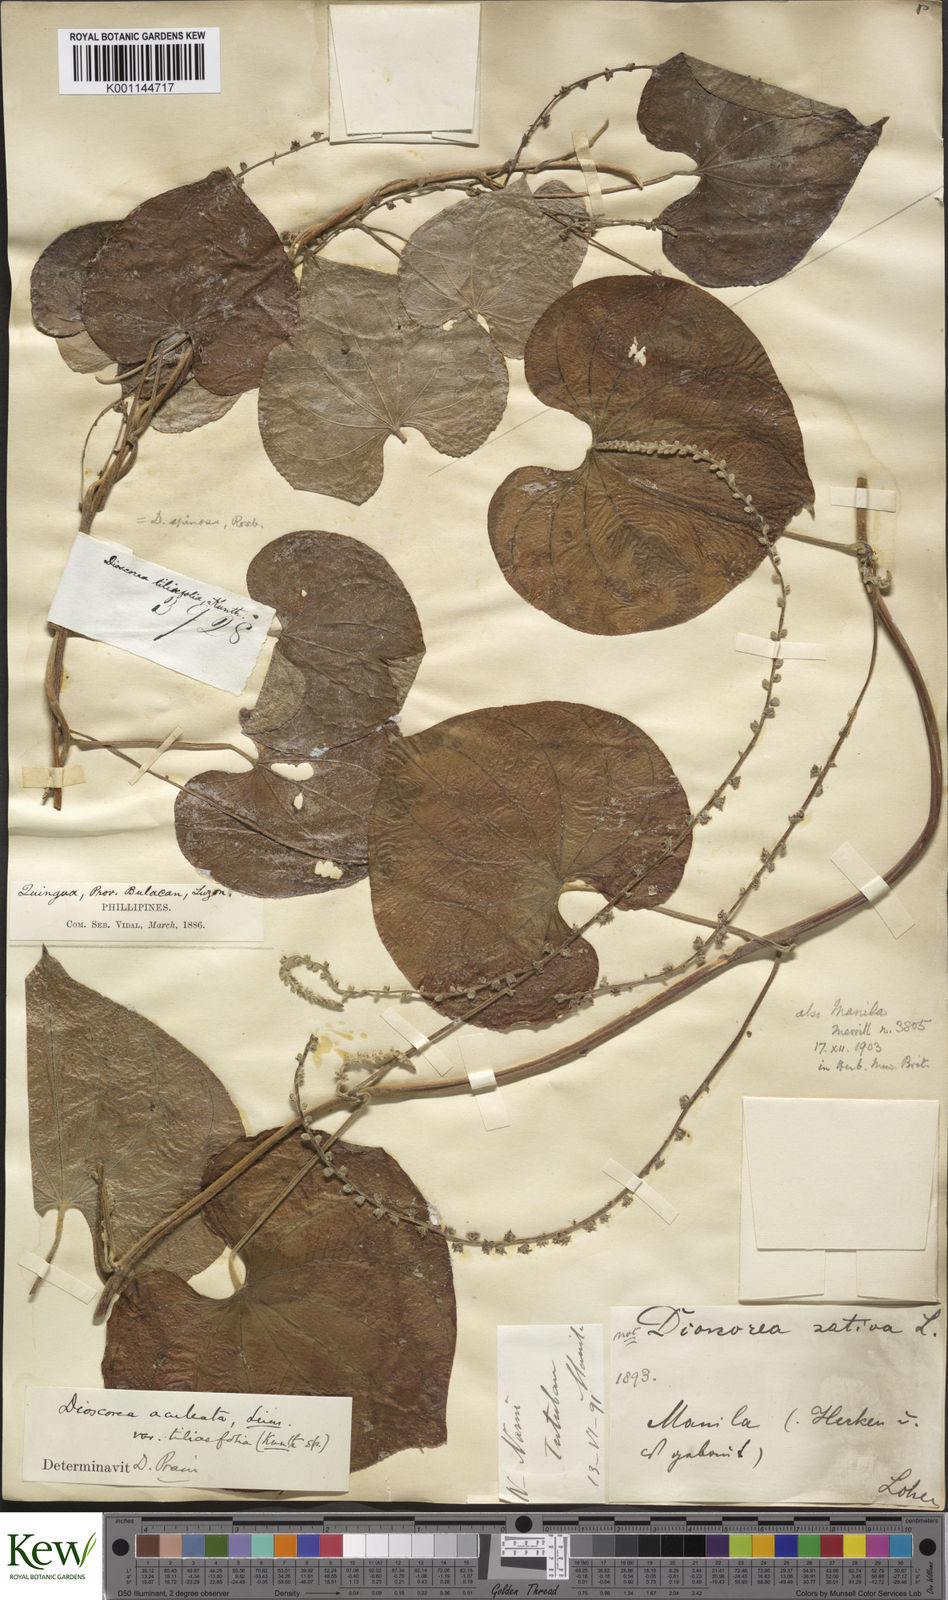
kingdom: Plantae
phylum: Tracheophyta
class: Liliopsida
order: Dioscoreales
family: Dioscoreaceae
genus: Dioscorea
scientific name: Dioscorea esculenta
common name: Chinese yam
